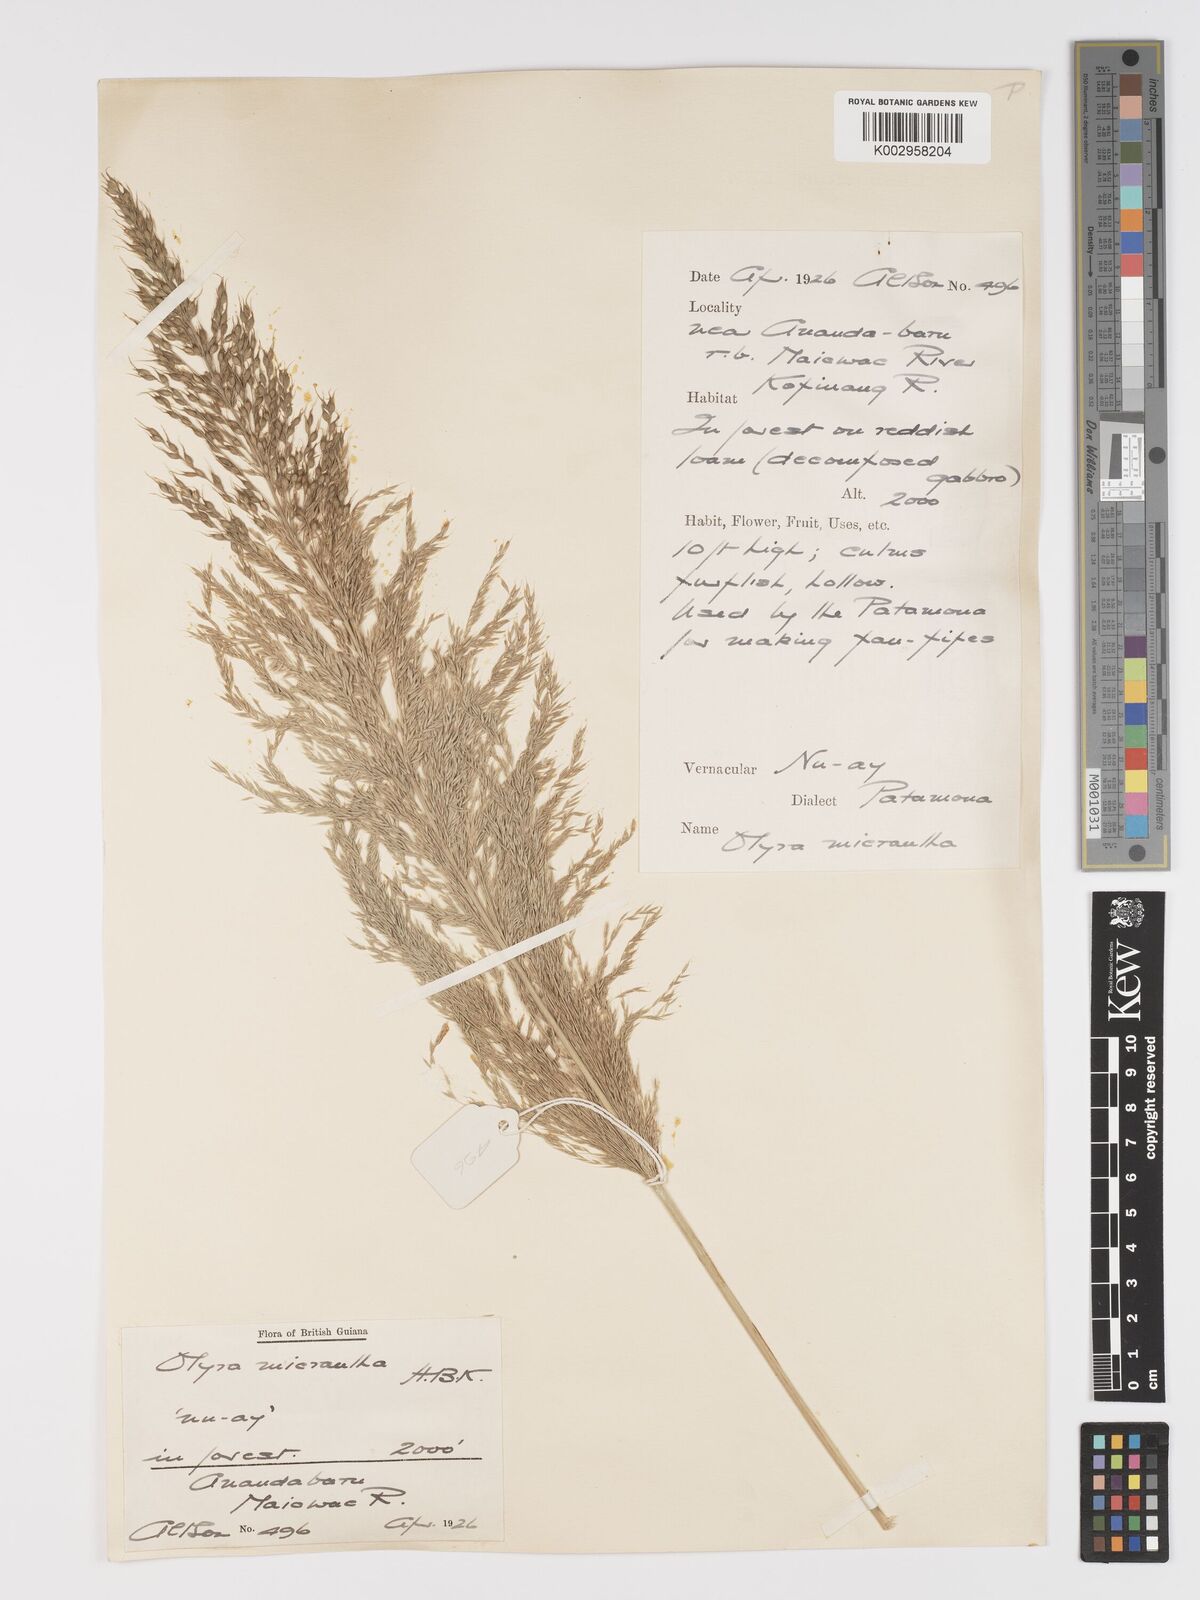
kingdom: Plantae
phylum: Tracheophyta
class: Liliopsida
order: Poales
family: Poaceae
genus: Taquara
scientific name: Taquara micrantha
